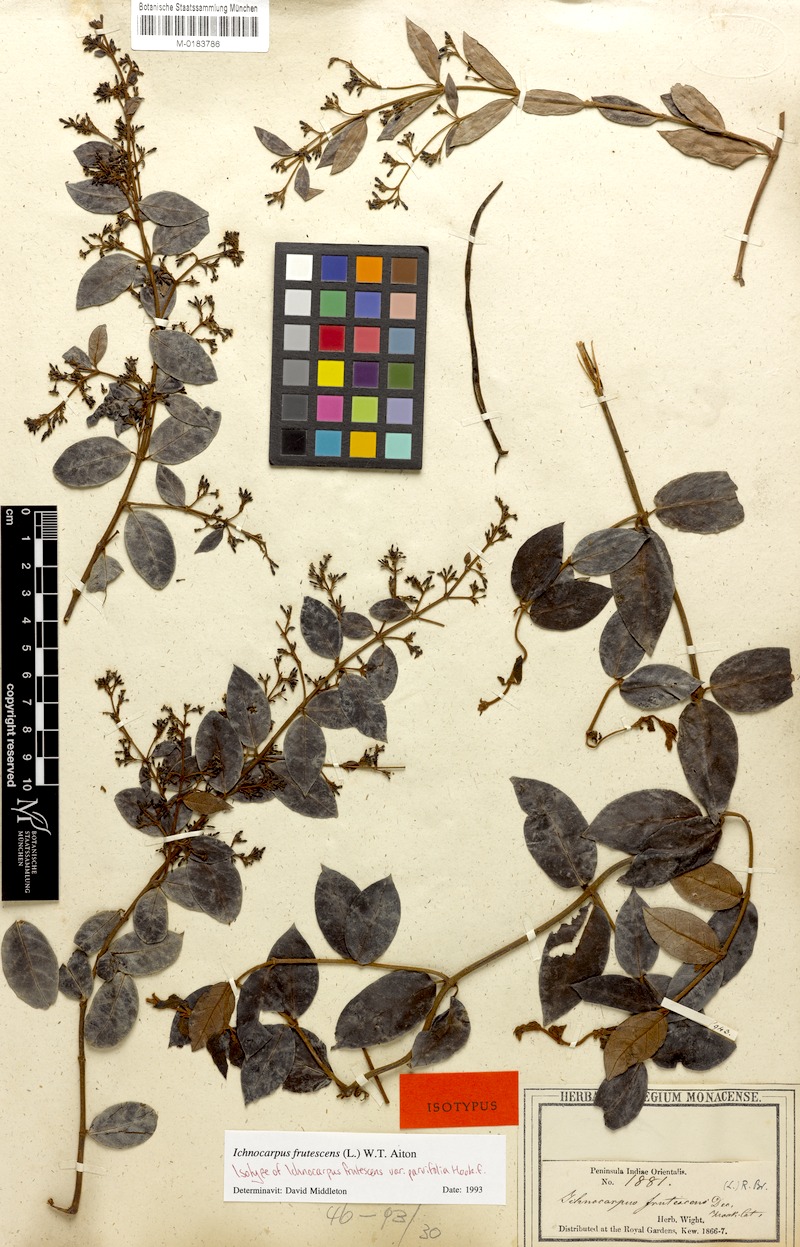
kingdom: Plantae
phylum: Tracheophyta
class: Magnoliopsida
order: Gentianales
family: Apocynaceae
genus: Ichnocarpus
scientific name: Ichnocarpus frutescens
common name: Ichnocarpus
